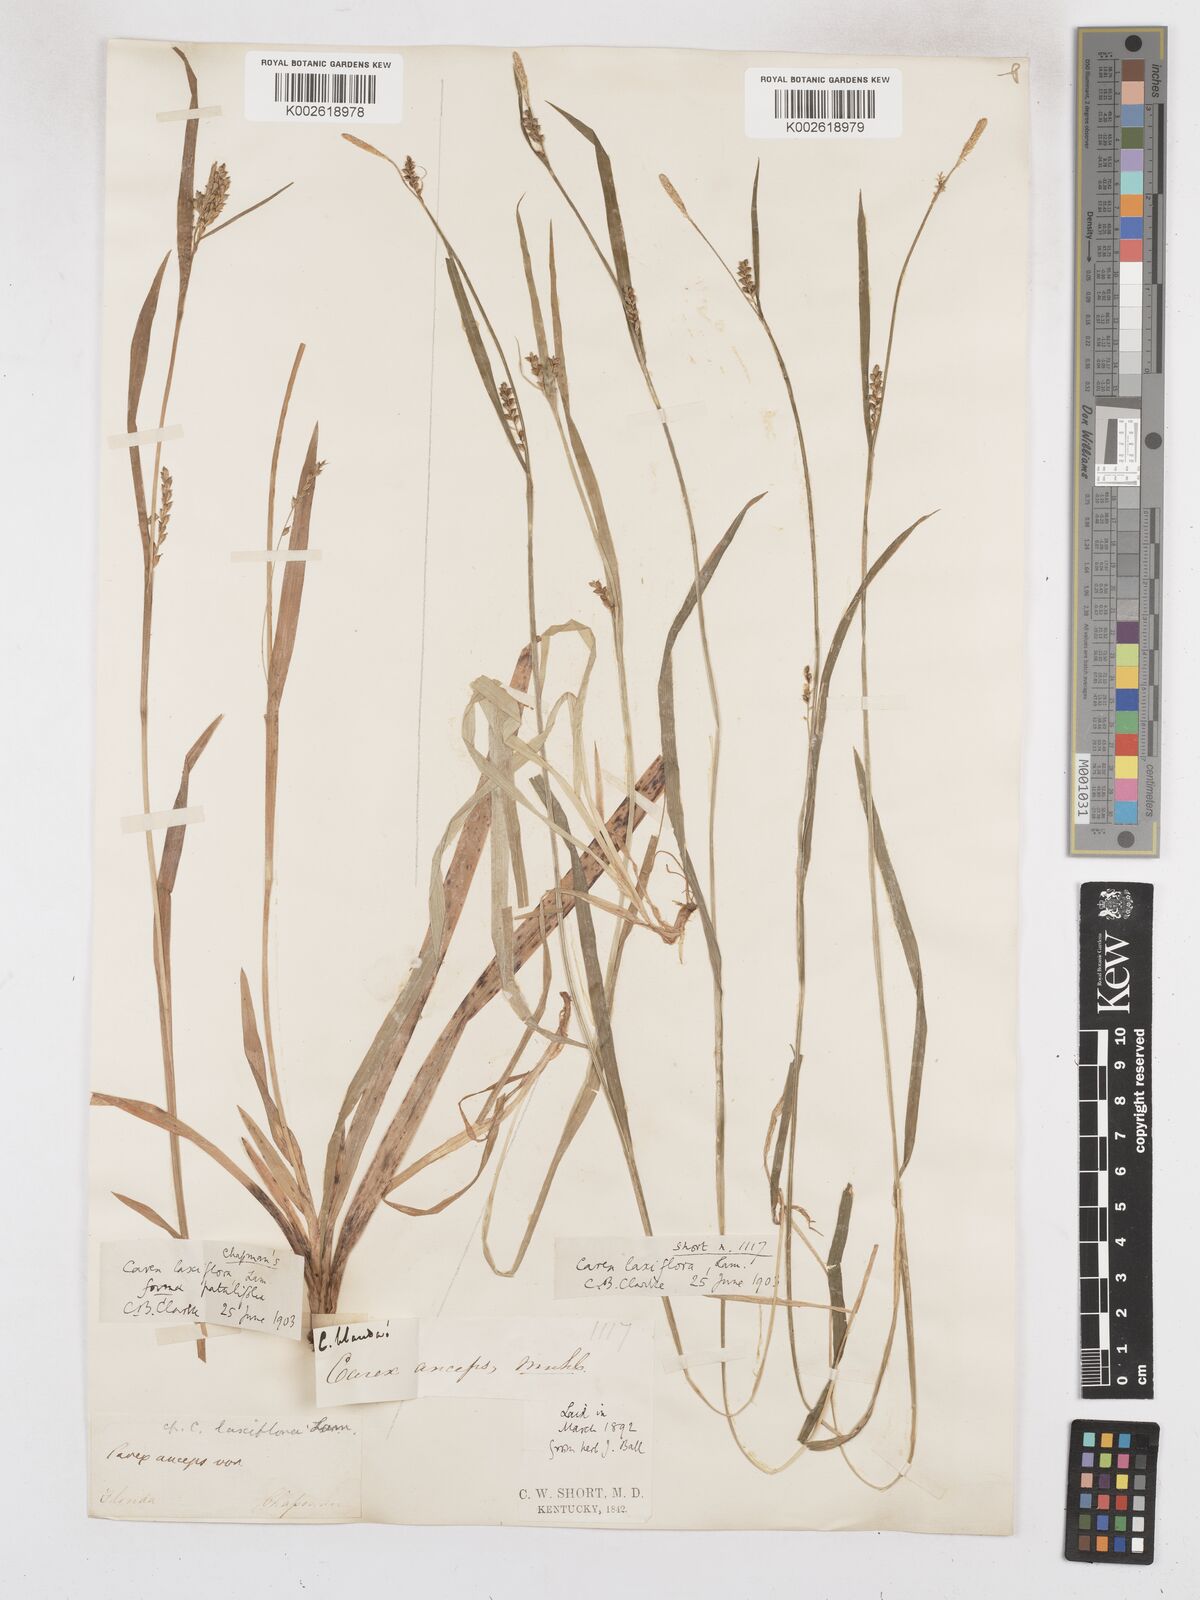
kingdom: Plantae
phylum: Tracheophyta
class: Liliopsida
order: Poales
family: Cyperaceae
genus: Carex
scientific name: Carex striatula
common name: Lined sedge
